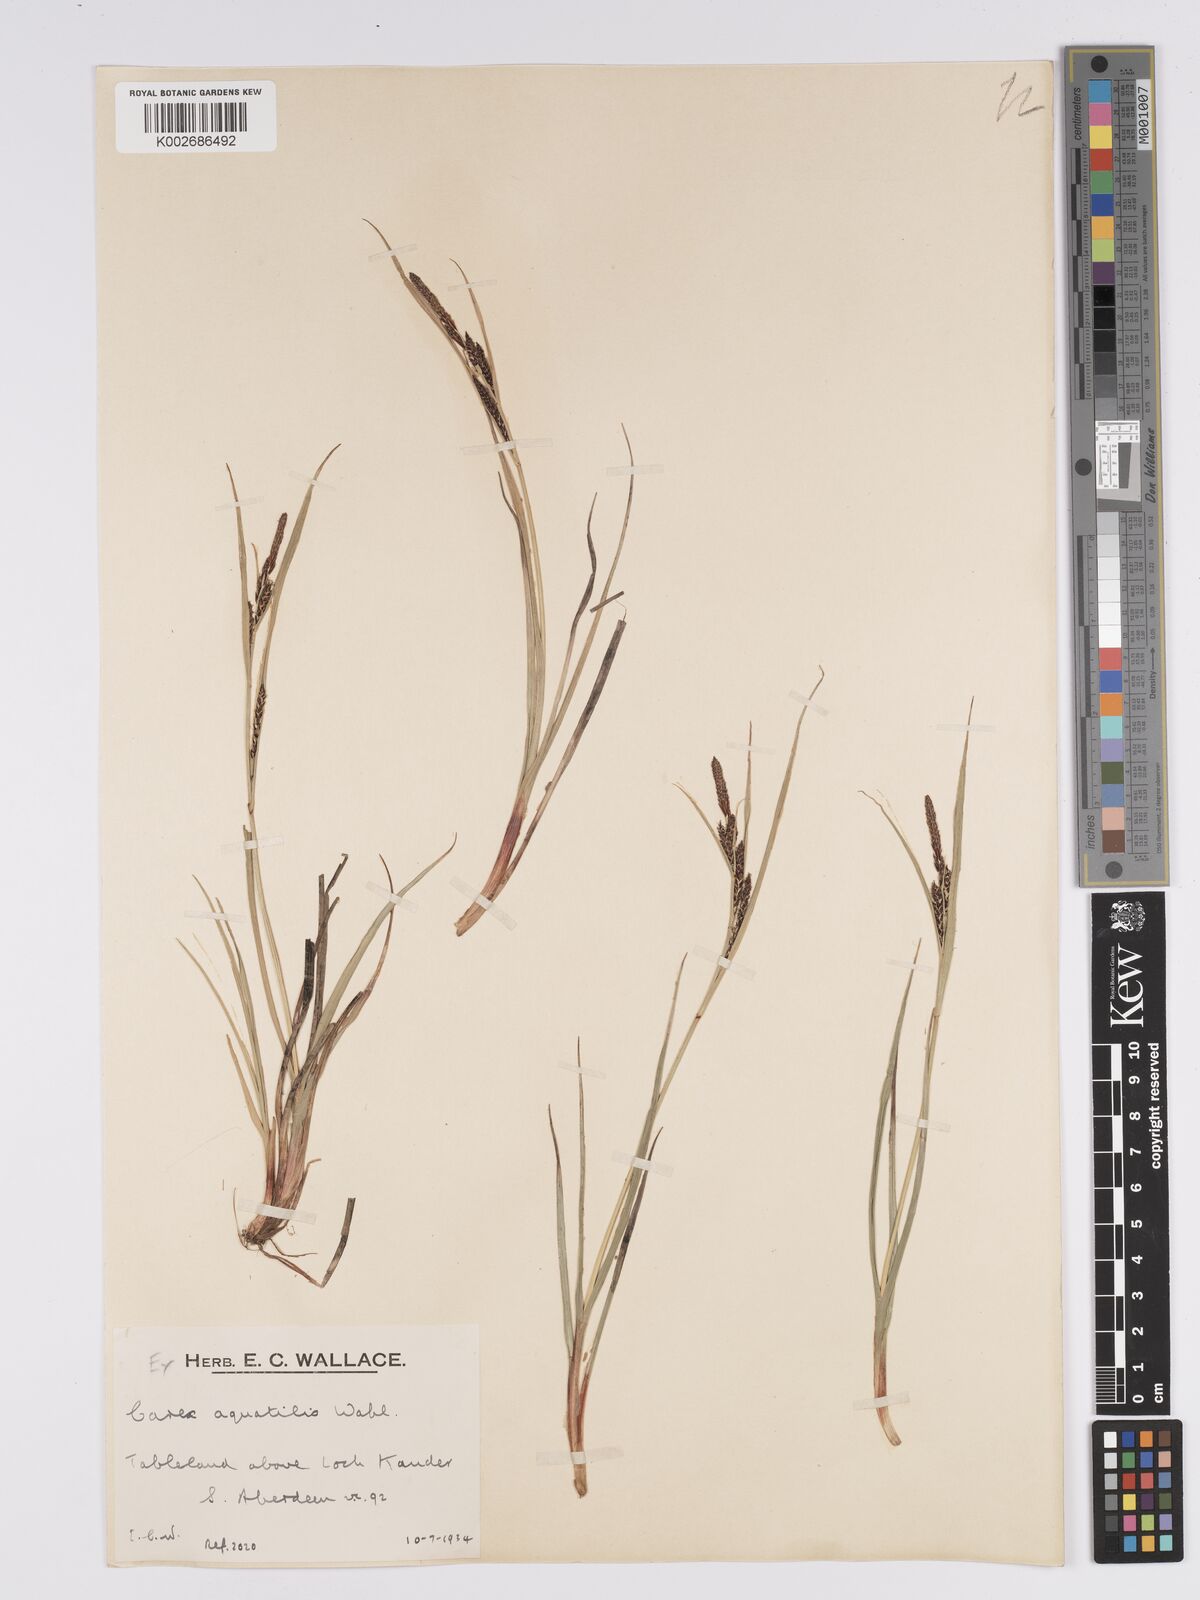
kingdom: Plantae
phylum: Tracheophyta
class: Liliopsida
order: Poales
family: Cyperaceae
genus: Carex
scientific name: Carex aquatilis
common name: Water sedge
